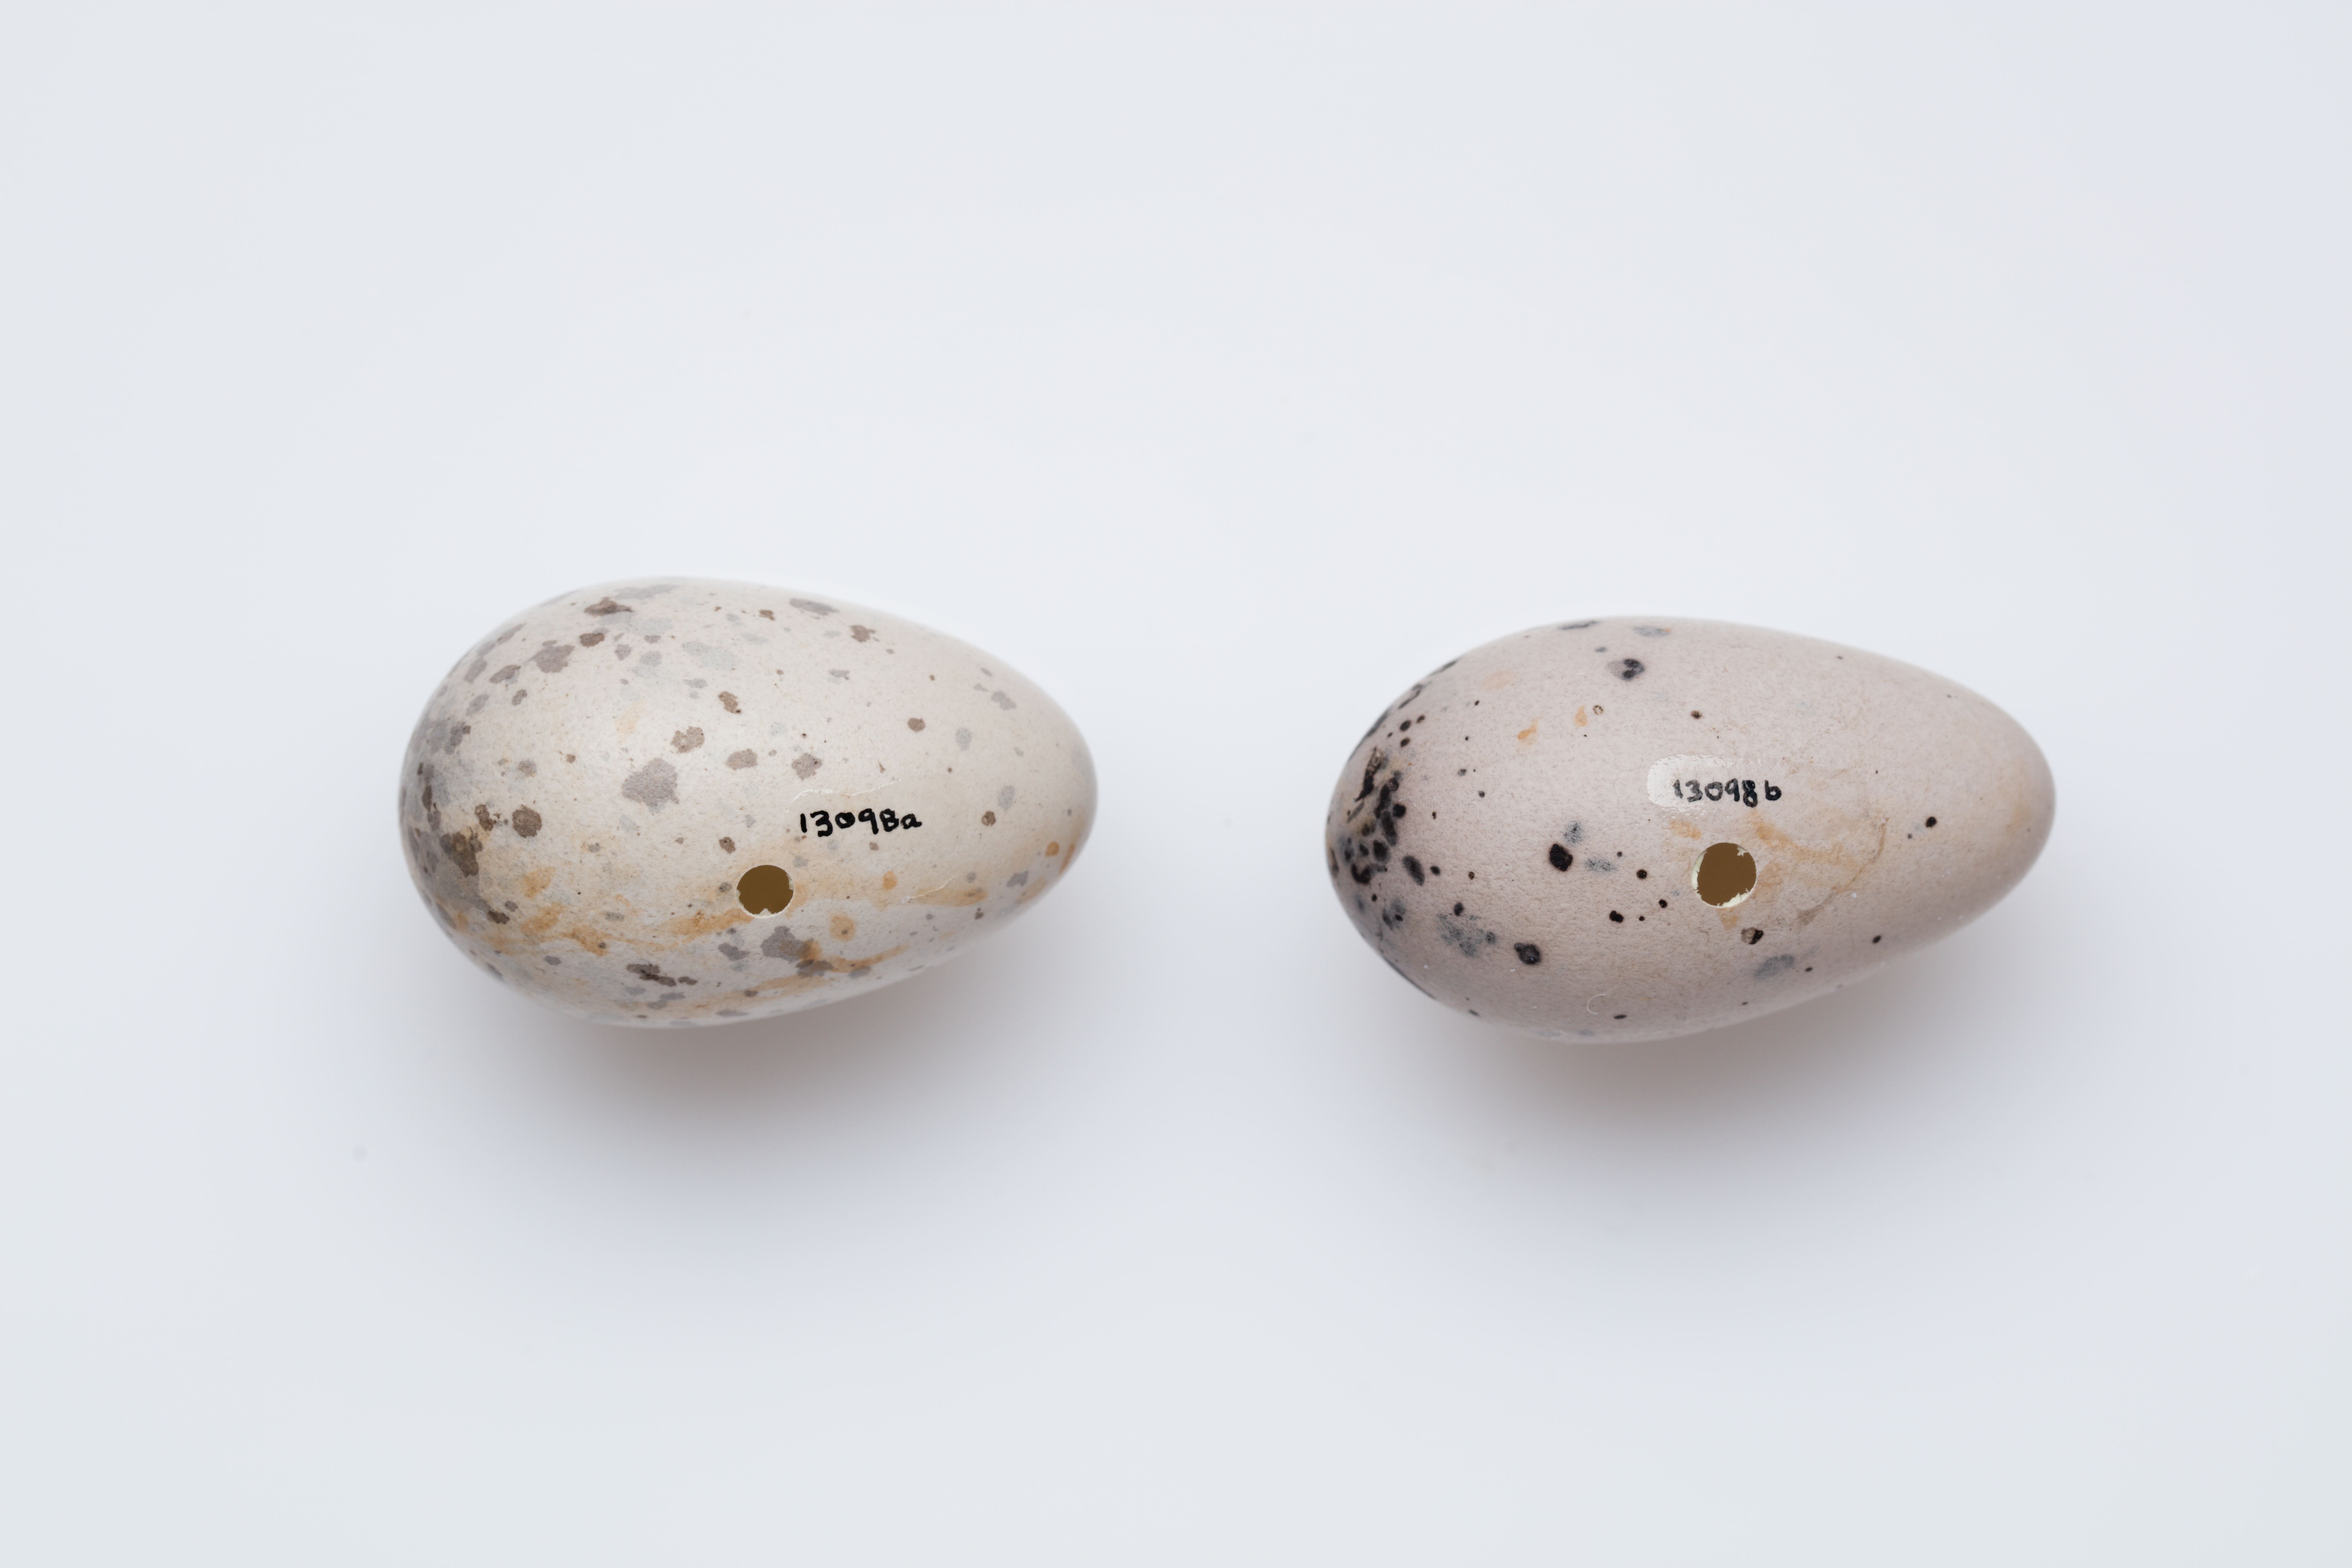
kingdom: Animalia
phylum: Chordata
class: Aves
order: Passeriformes
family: Callaeatidae
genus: Callaeas
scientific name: Callaeas cinereus
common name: South island kokako
